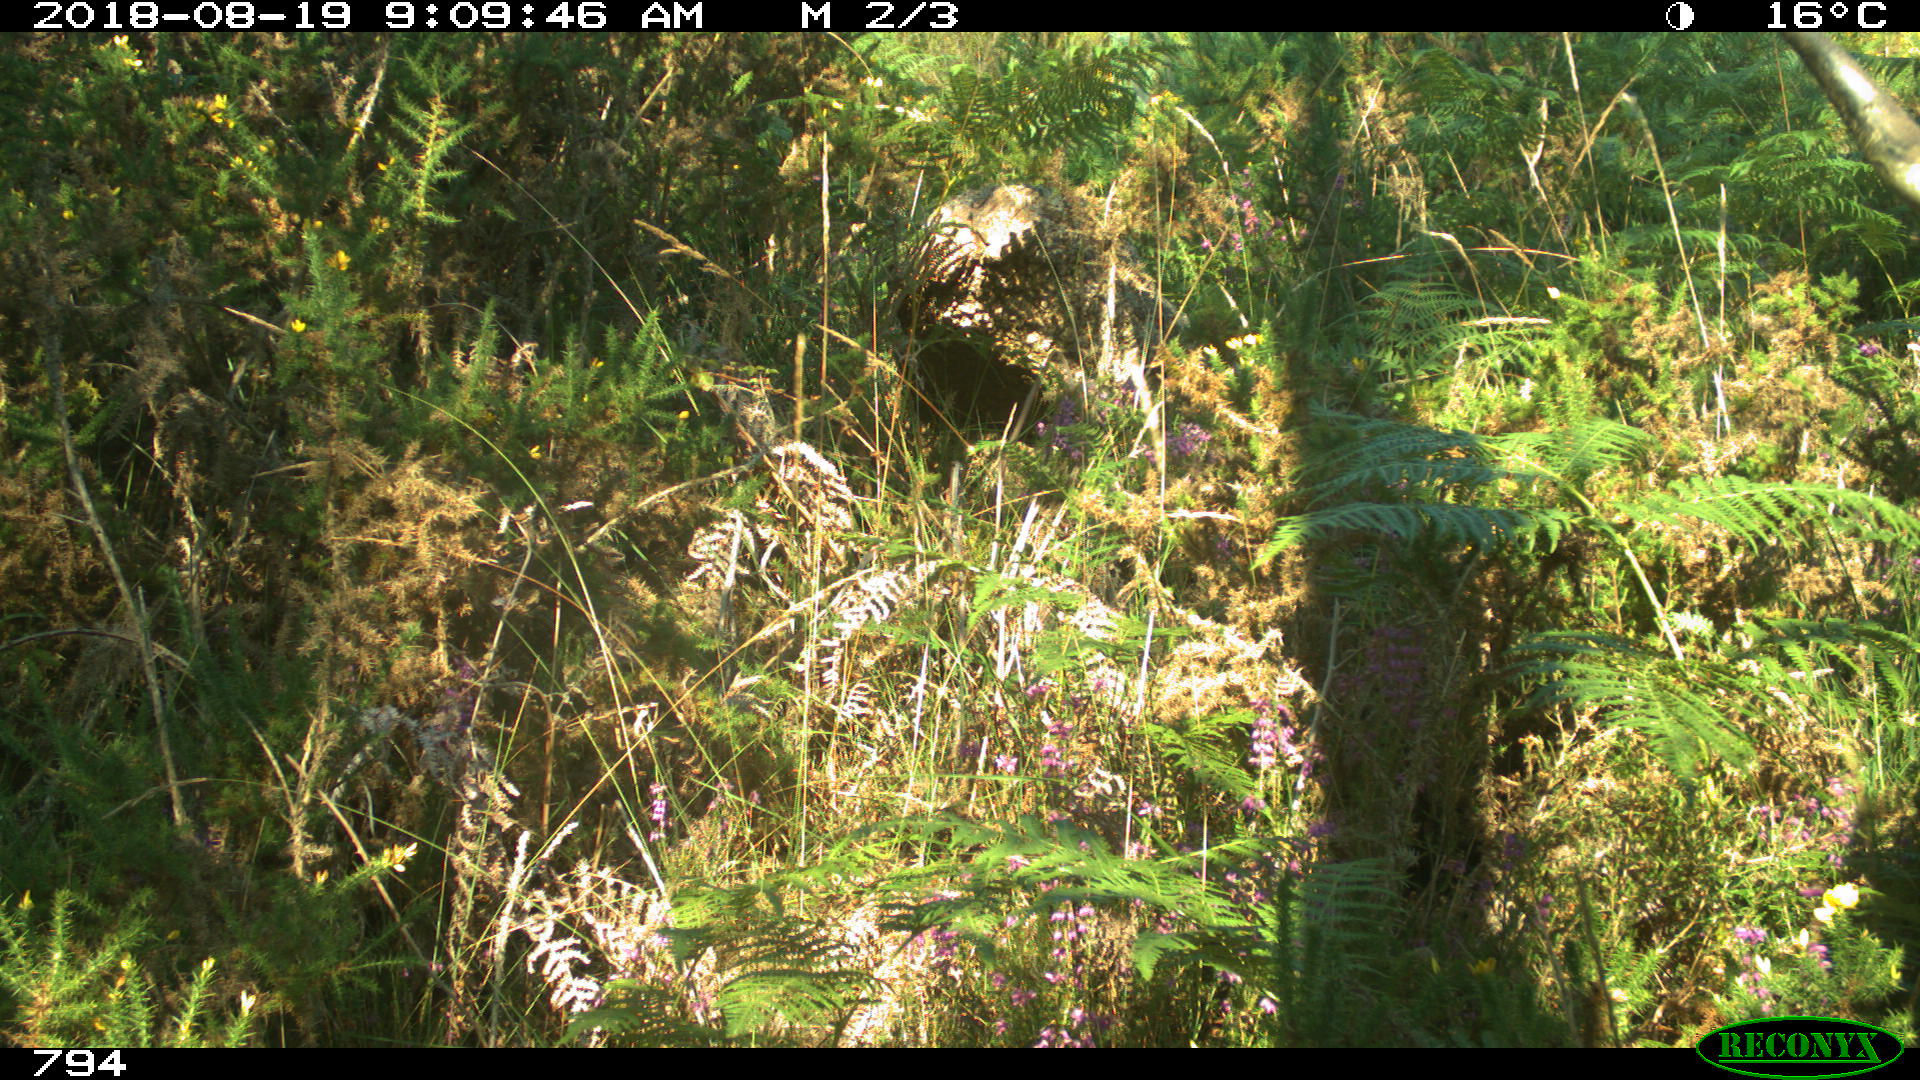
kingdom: Animalia
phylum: Chordata
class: Mammalia
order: Artiodactyla
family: Bovidae
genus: Bos
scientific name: Bos taurus
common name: Domesticated cattle
